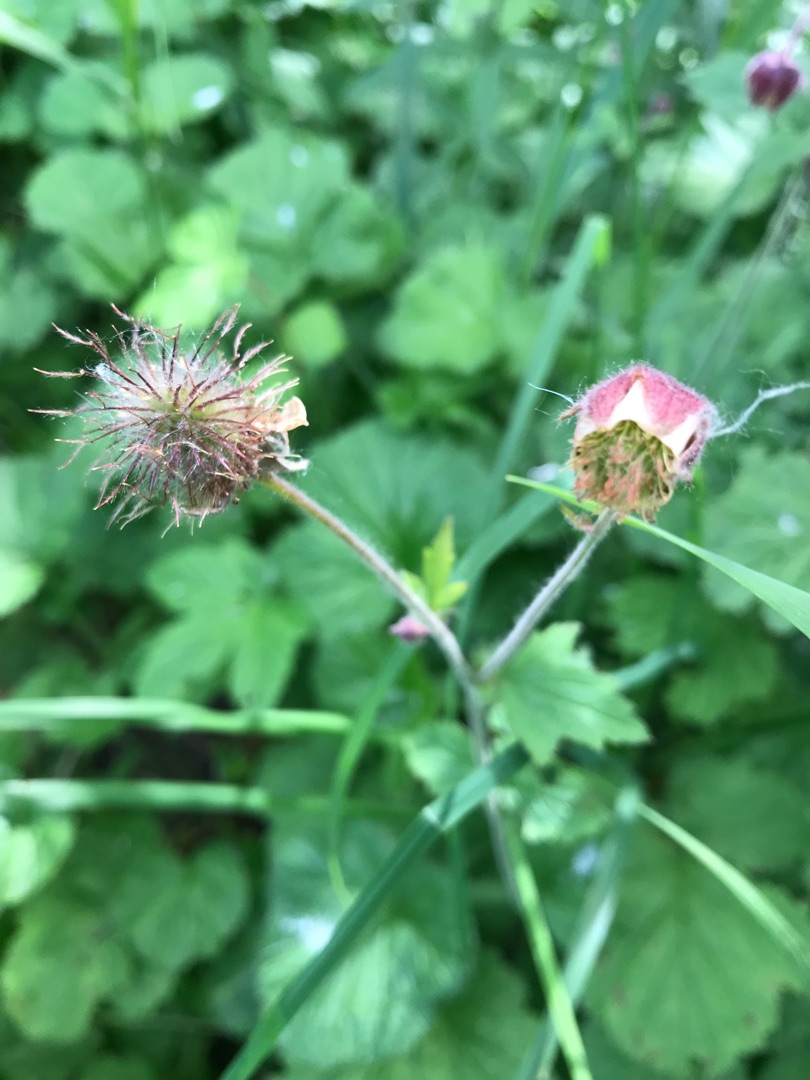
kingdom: Plantae
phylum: Tracheophyta
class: Magnoliopsida
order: Rosales
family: Rosaceae
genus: Geum
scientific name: Geum rivale
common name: Eng-nellikerod
